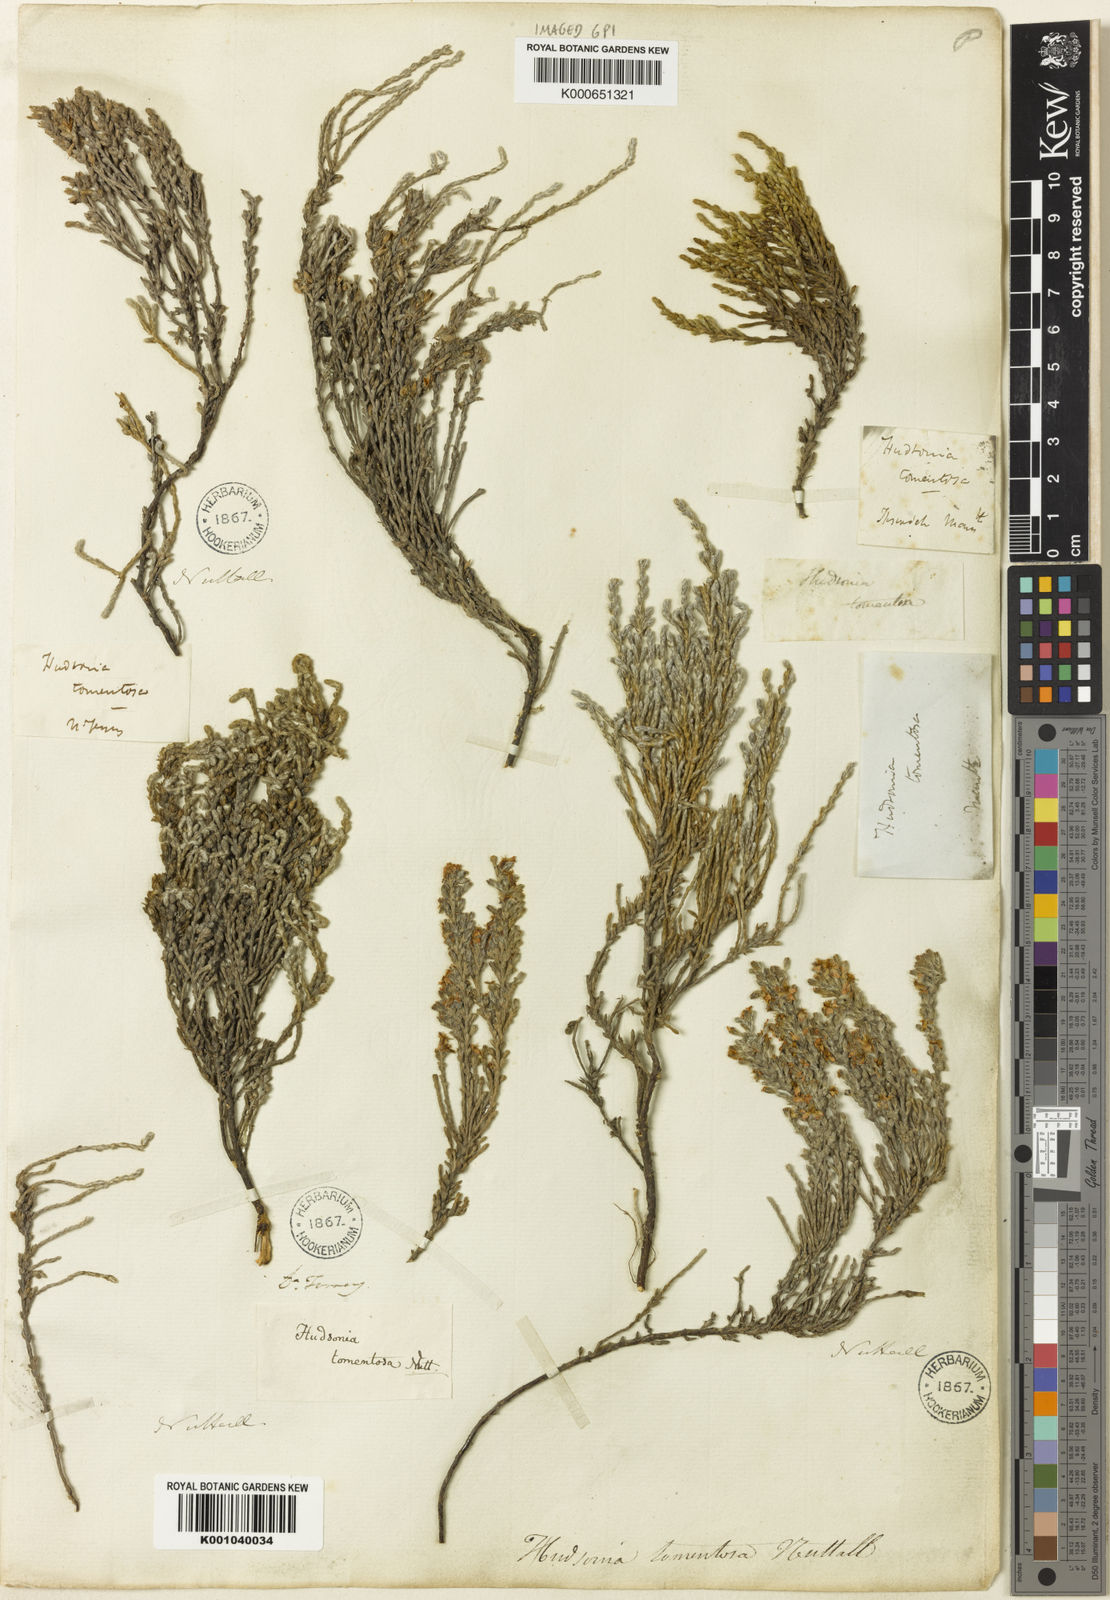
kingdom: Plantae
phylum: Tracheophyta
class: Magnoliopsida
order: Malvales
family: Cistaceae
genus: Hudsonia
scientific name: Hudsonia tomentosa
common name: Beach-heath
